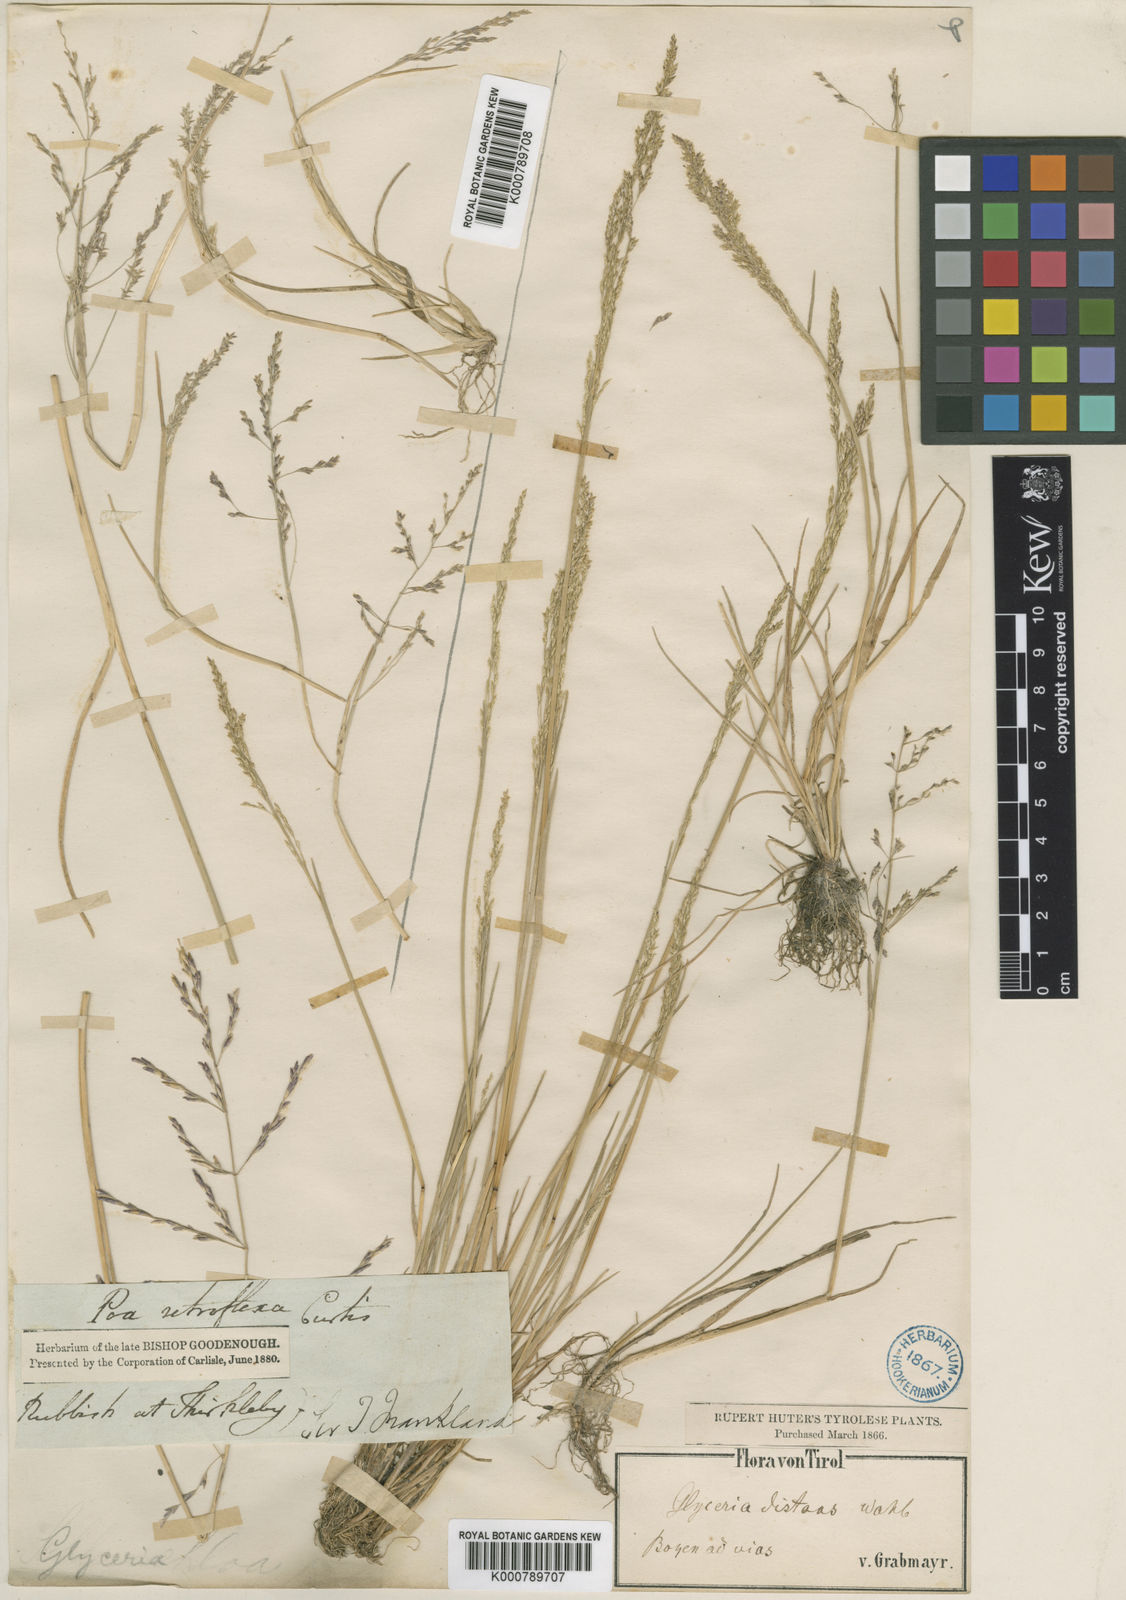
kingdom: Plantae
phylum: Tracheophyta
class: Liliopsida
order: Poales
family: Poaceae
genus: Puccinellia
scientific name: Puccinellia distans
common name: Weeping alkaligrass
